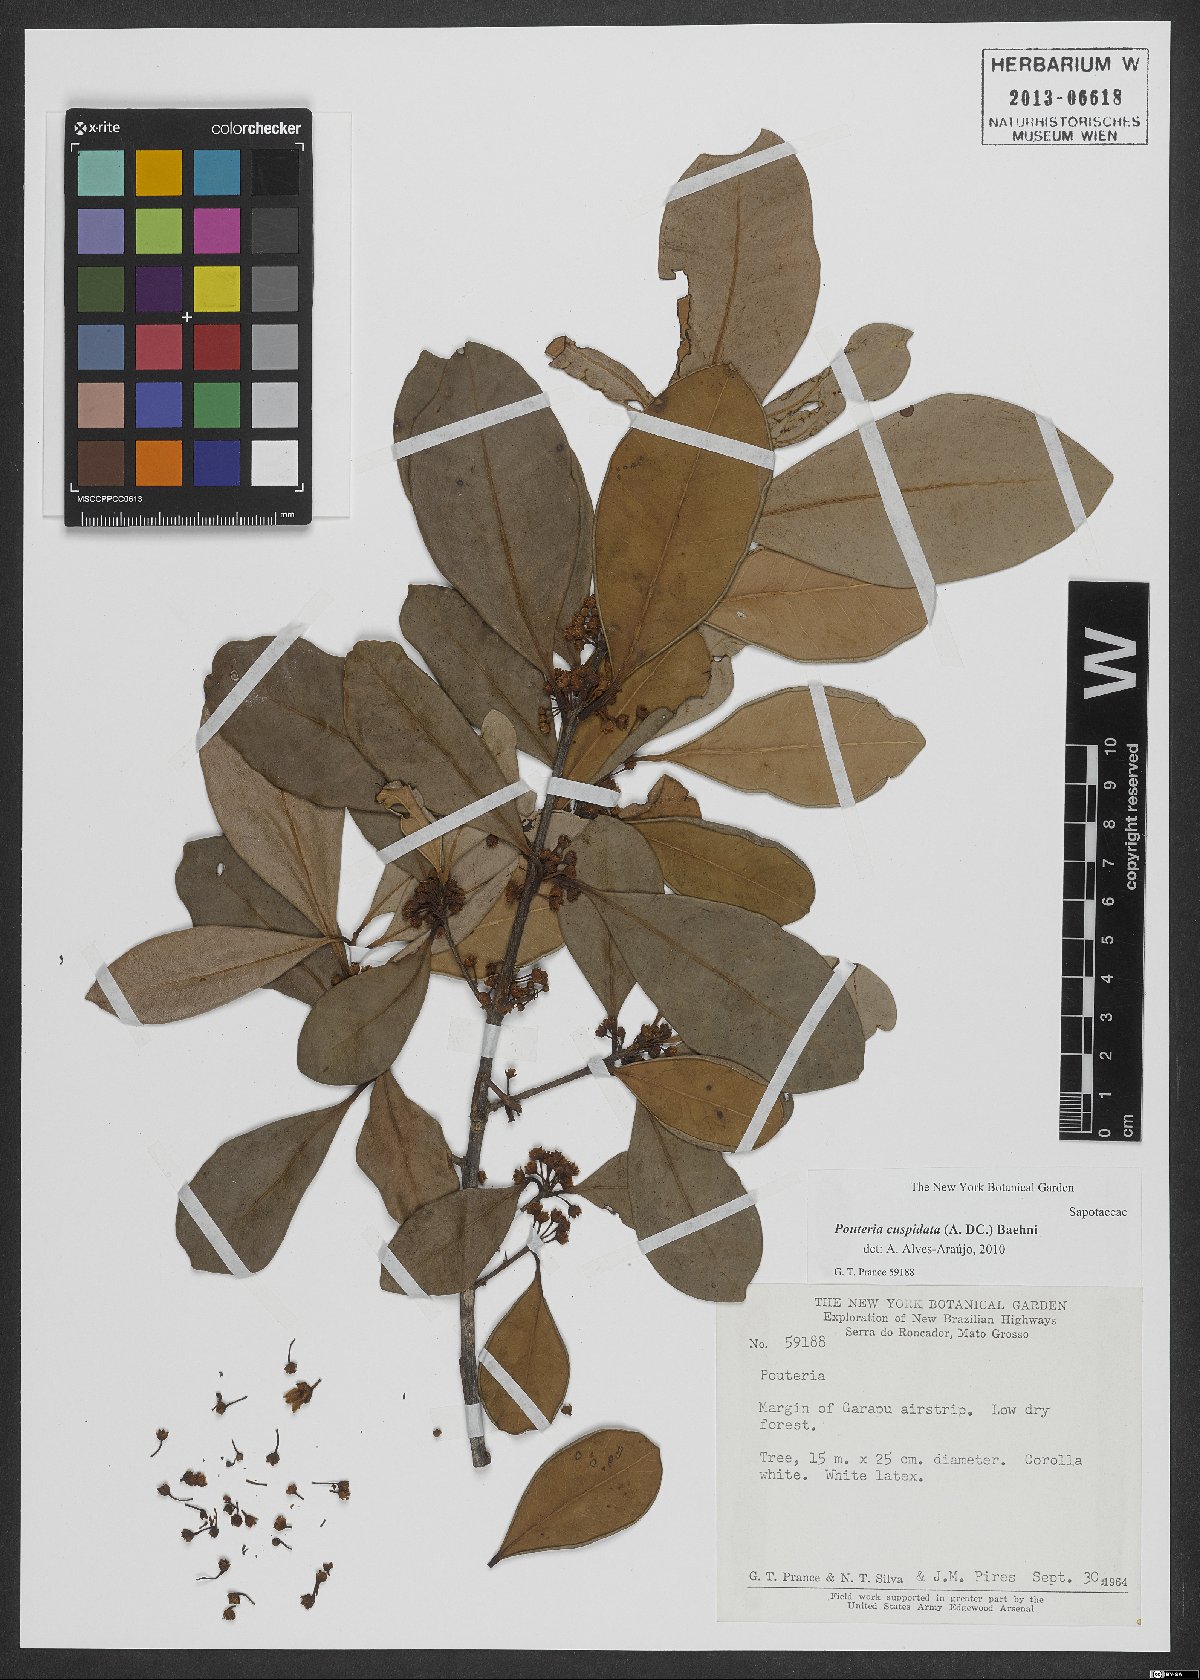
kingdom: Plantae
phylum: Tracheophyta
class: Magnoliopsida
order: Ericales
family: Sapotaceae
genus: Pouteria
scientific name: Pouteria cuspidata
